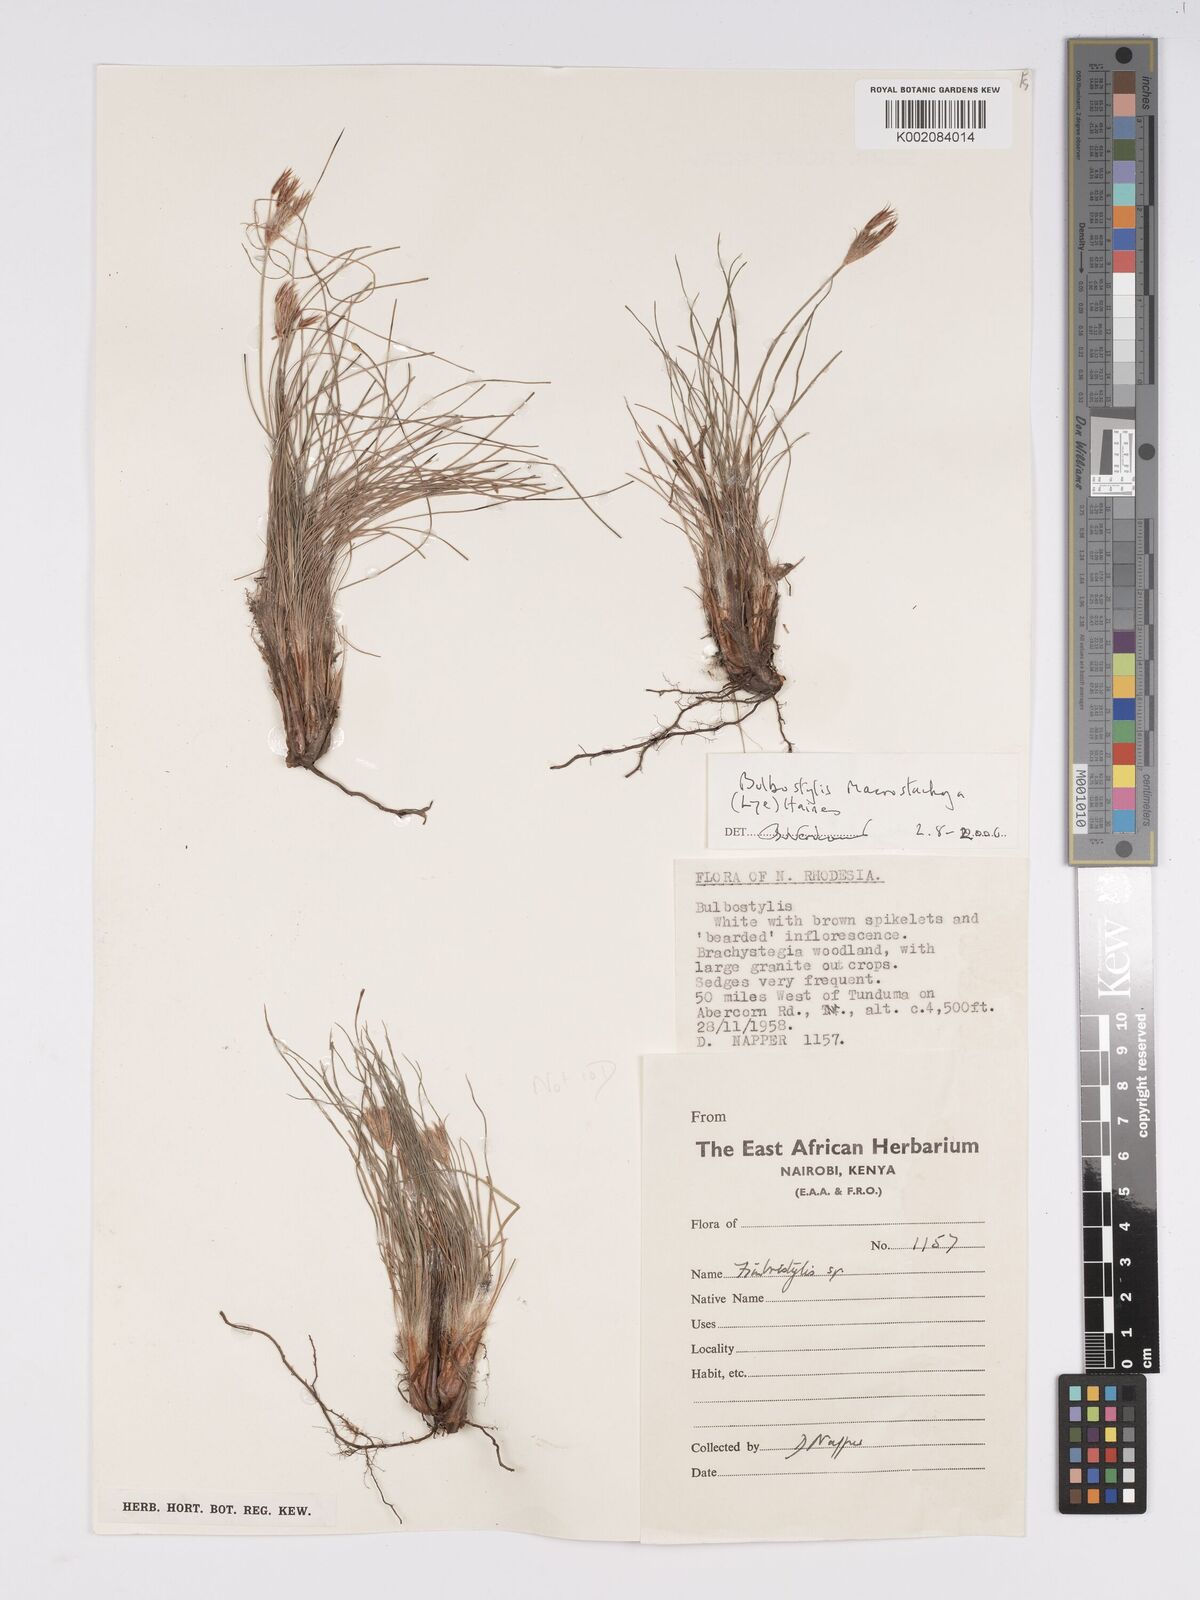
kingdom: Plantae
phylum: Tracheophyta
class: Liliopsida
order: Poales
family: Cyperaceae
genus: Bulbostylis
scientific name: Bulbostylis macrostachya
